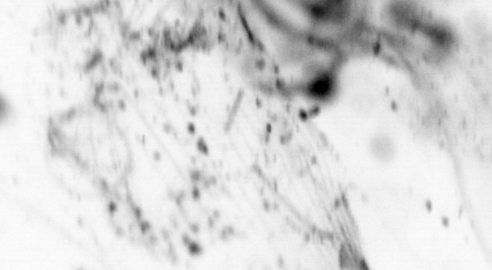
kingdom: Animalia
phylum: Chordata
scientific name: Chordata
